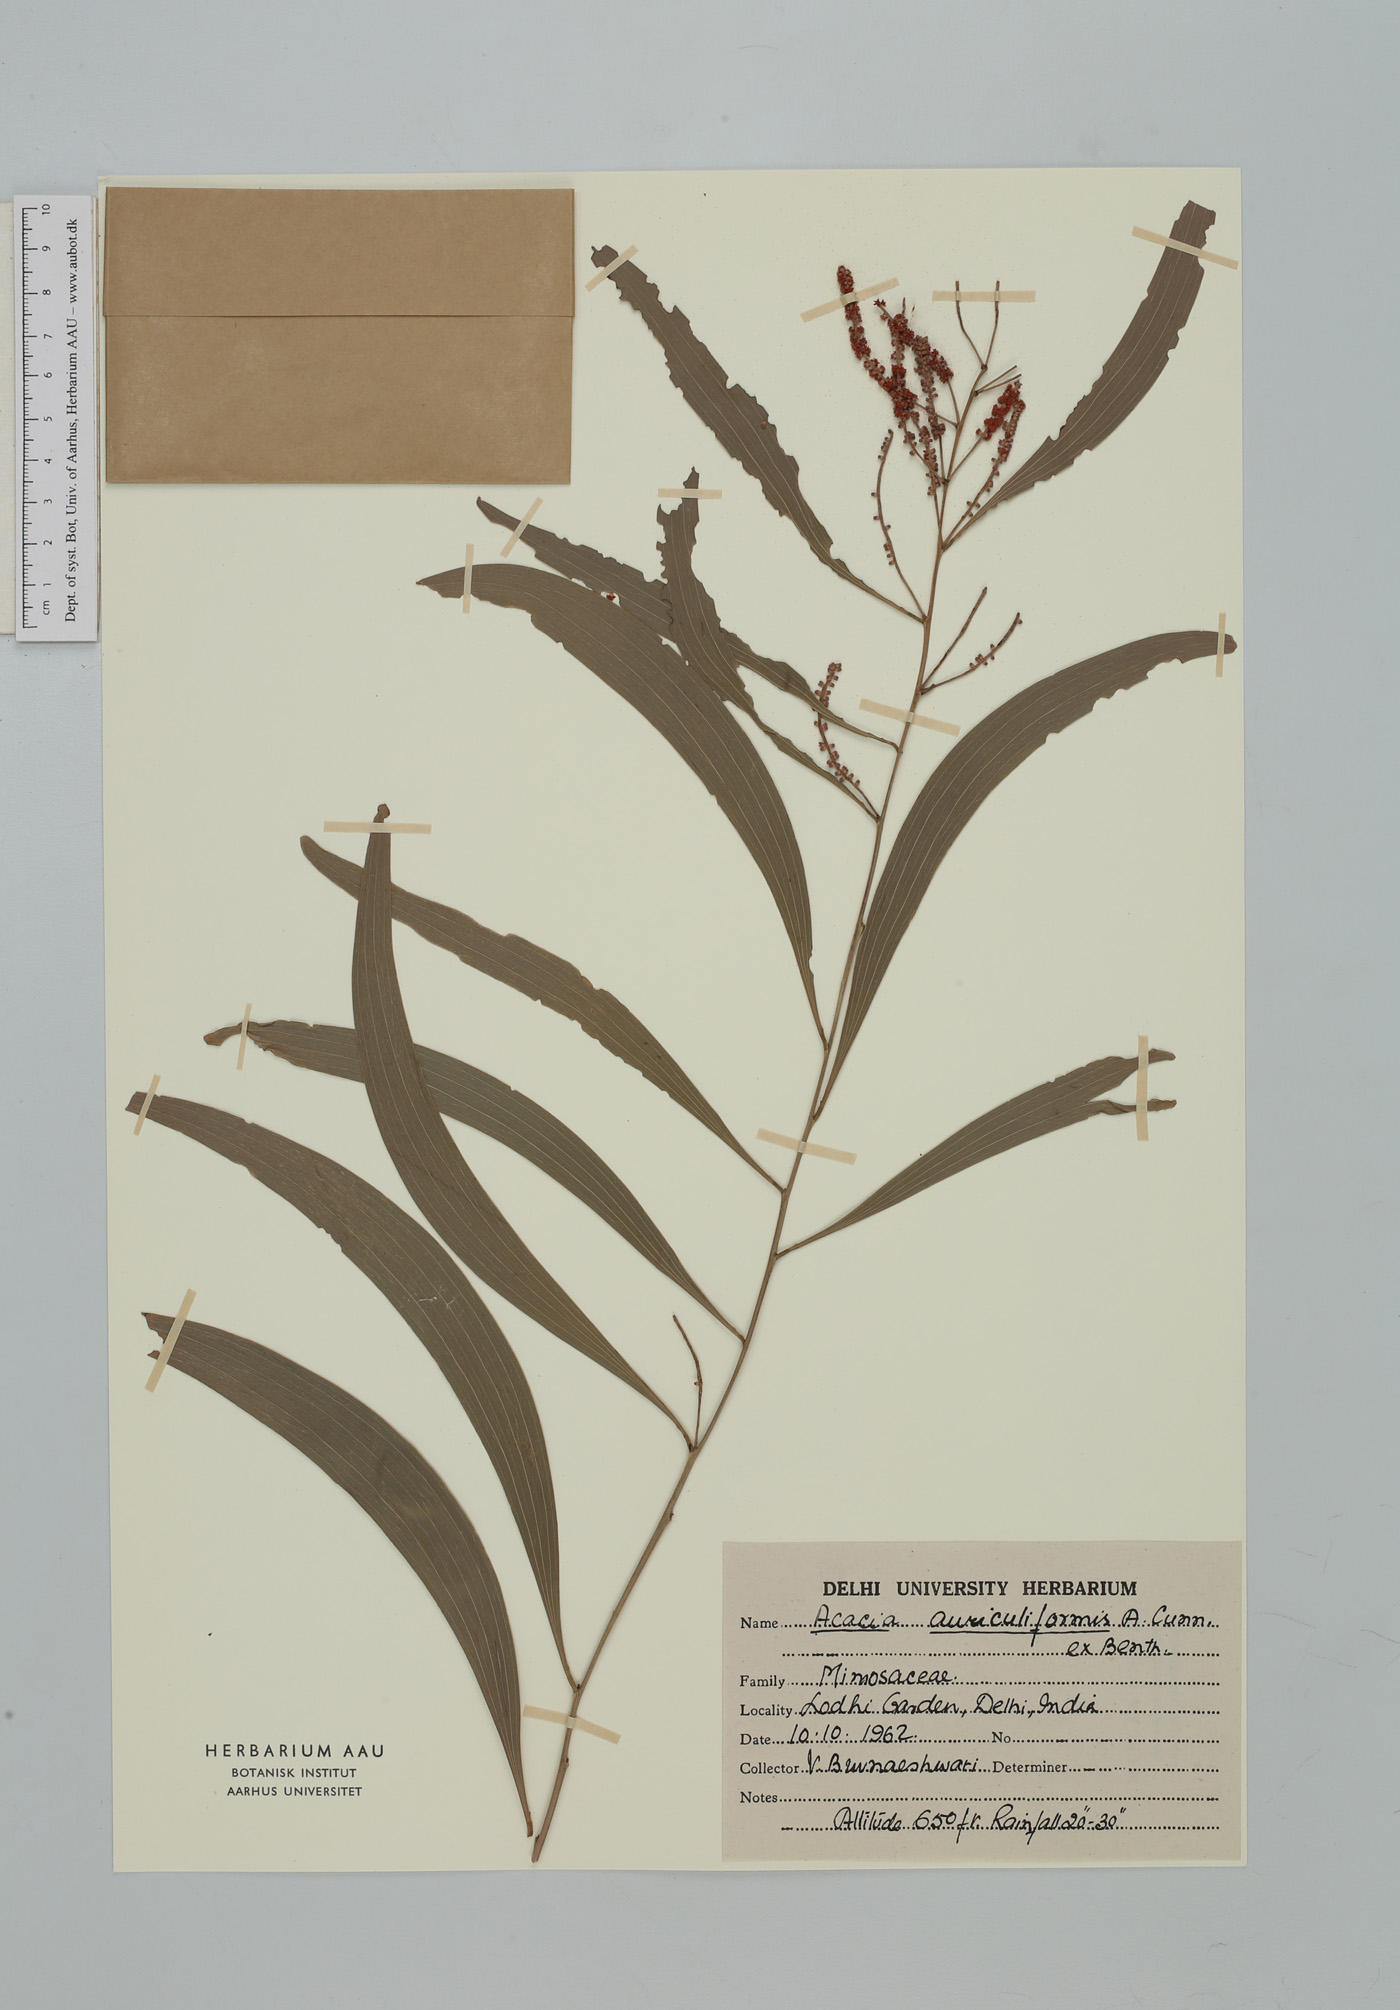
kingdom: Plantae
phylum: Tracheophyta
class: Magnoliopsida
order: Fabales
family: Fabaceae
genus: Acacia
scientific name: Acacia auriculiformis
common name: Earleaf acacia
